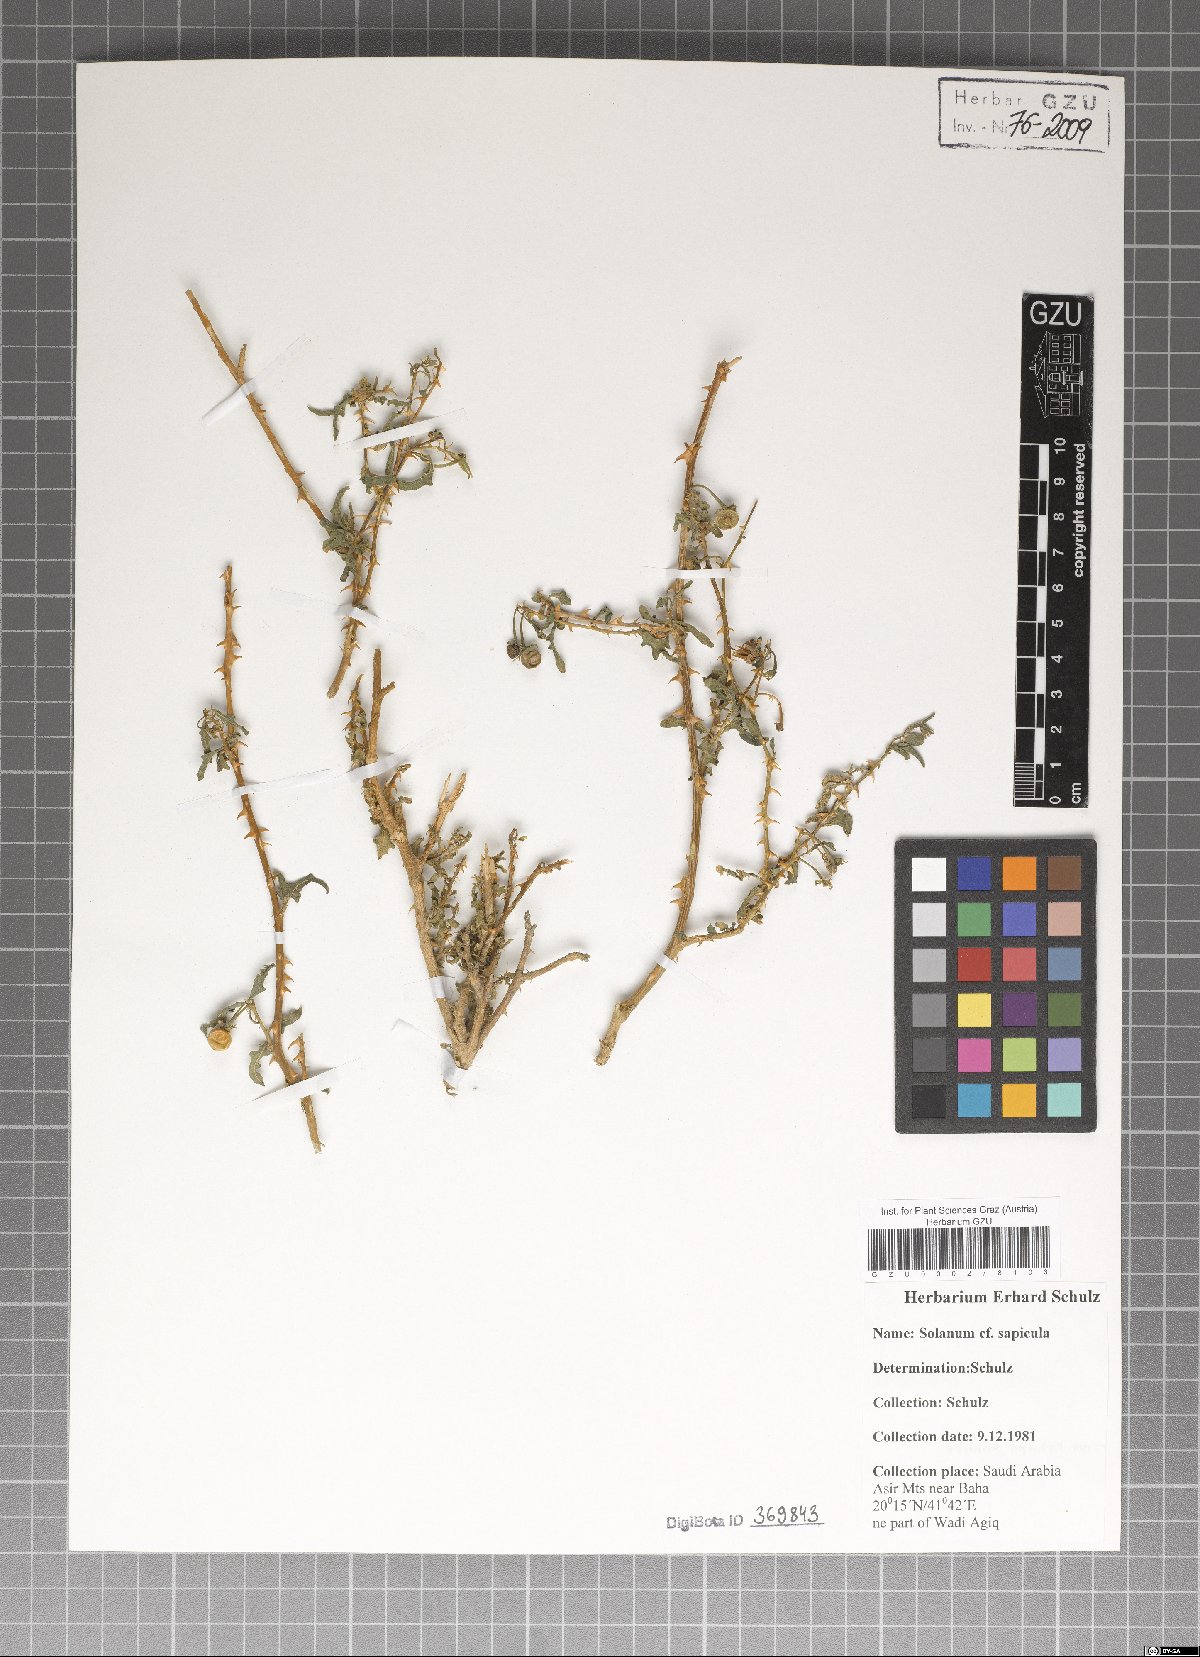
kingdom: Plantae
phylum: Tracheophyta
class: Magnoliopsida
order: Solanales
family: Solanaceae
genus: Solanum
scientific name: Solanum
